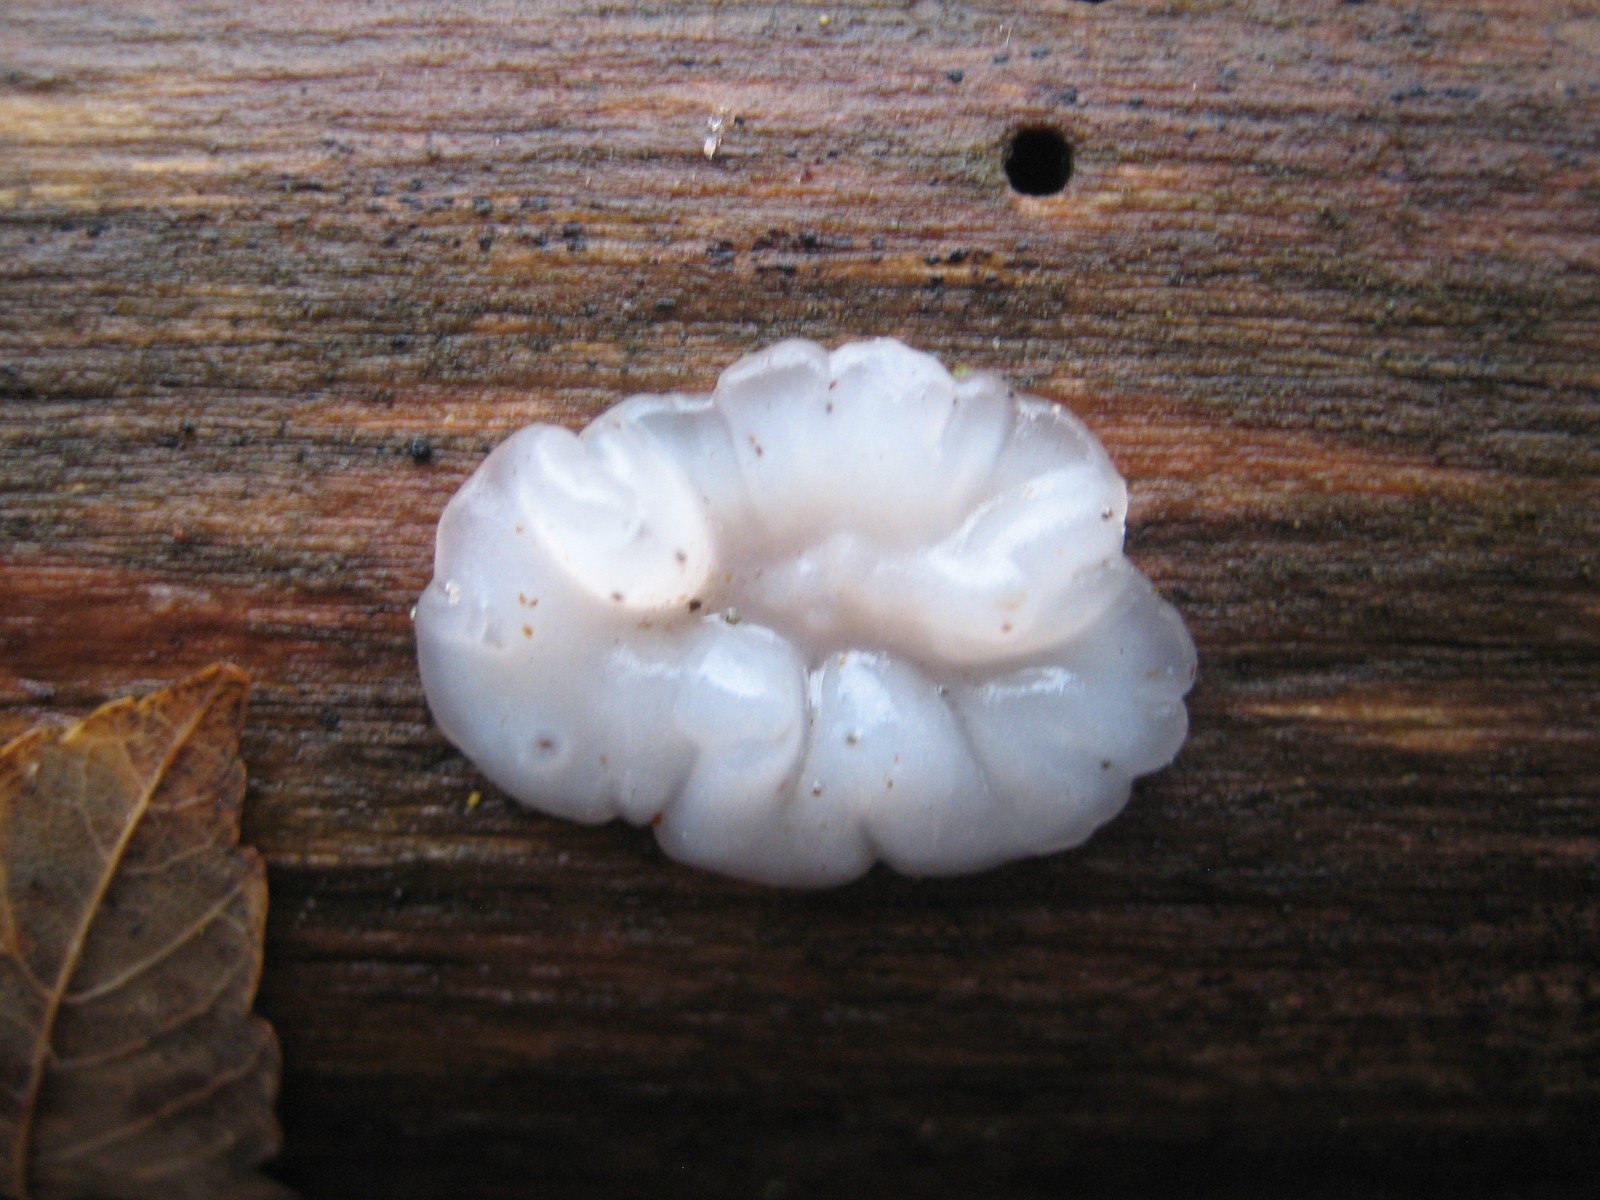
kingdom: Fungi
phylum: Basidiomycota
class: Agaricomycetes
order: Auriculariales
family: Auriculariaceae
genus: Exidia
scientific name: Exidia thuretiana
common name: hvidlig bævretop
